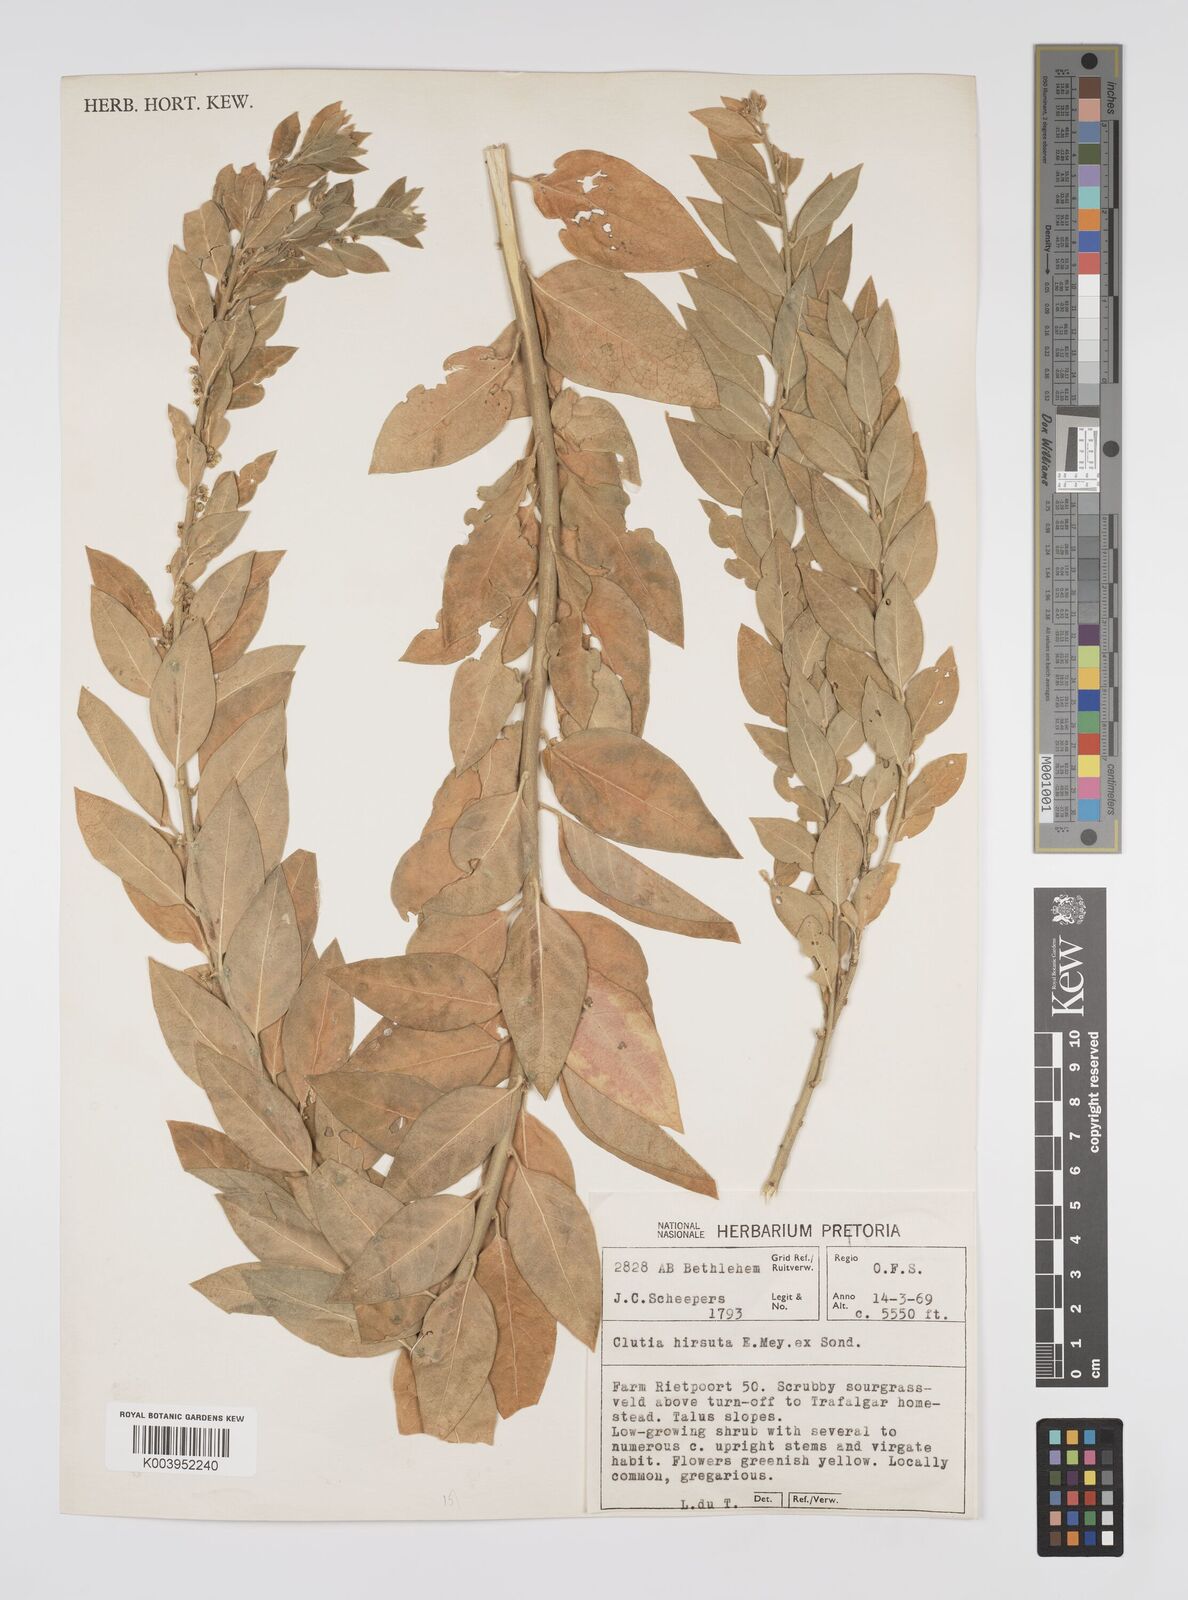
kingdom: Plantae
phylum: Tracheophyta
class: Magnoliopsida
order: Malpighiales
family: Peraceae
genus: Clutia
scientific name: Clutia affinis
